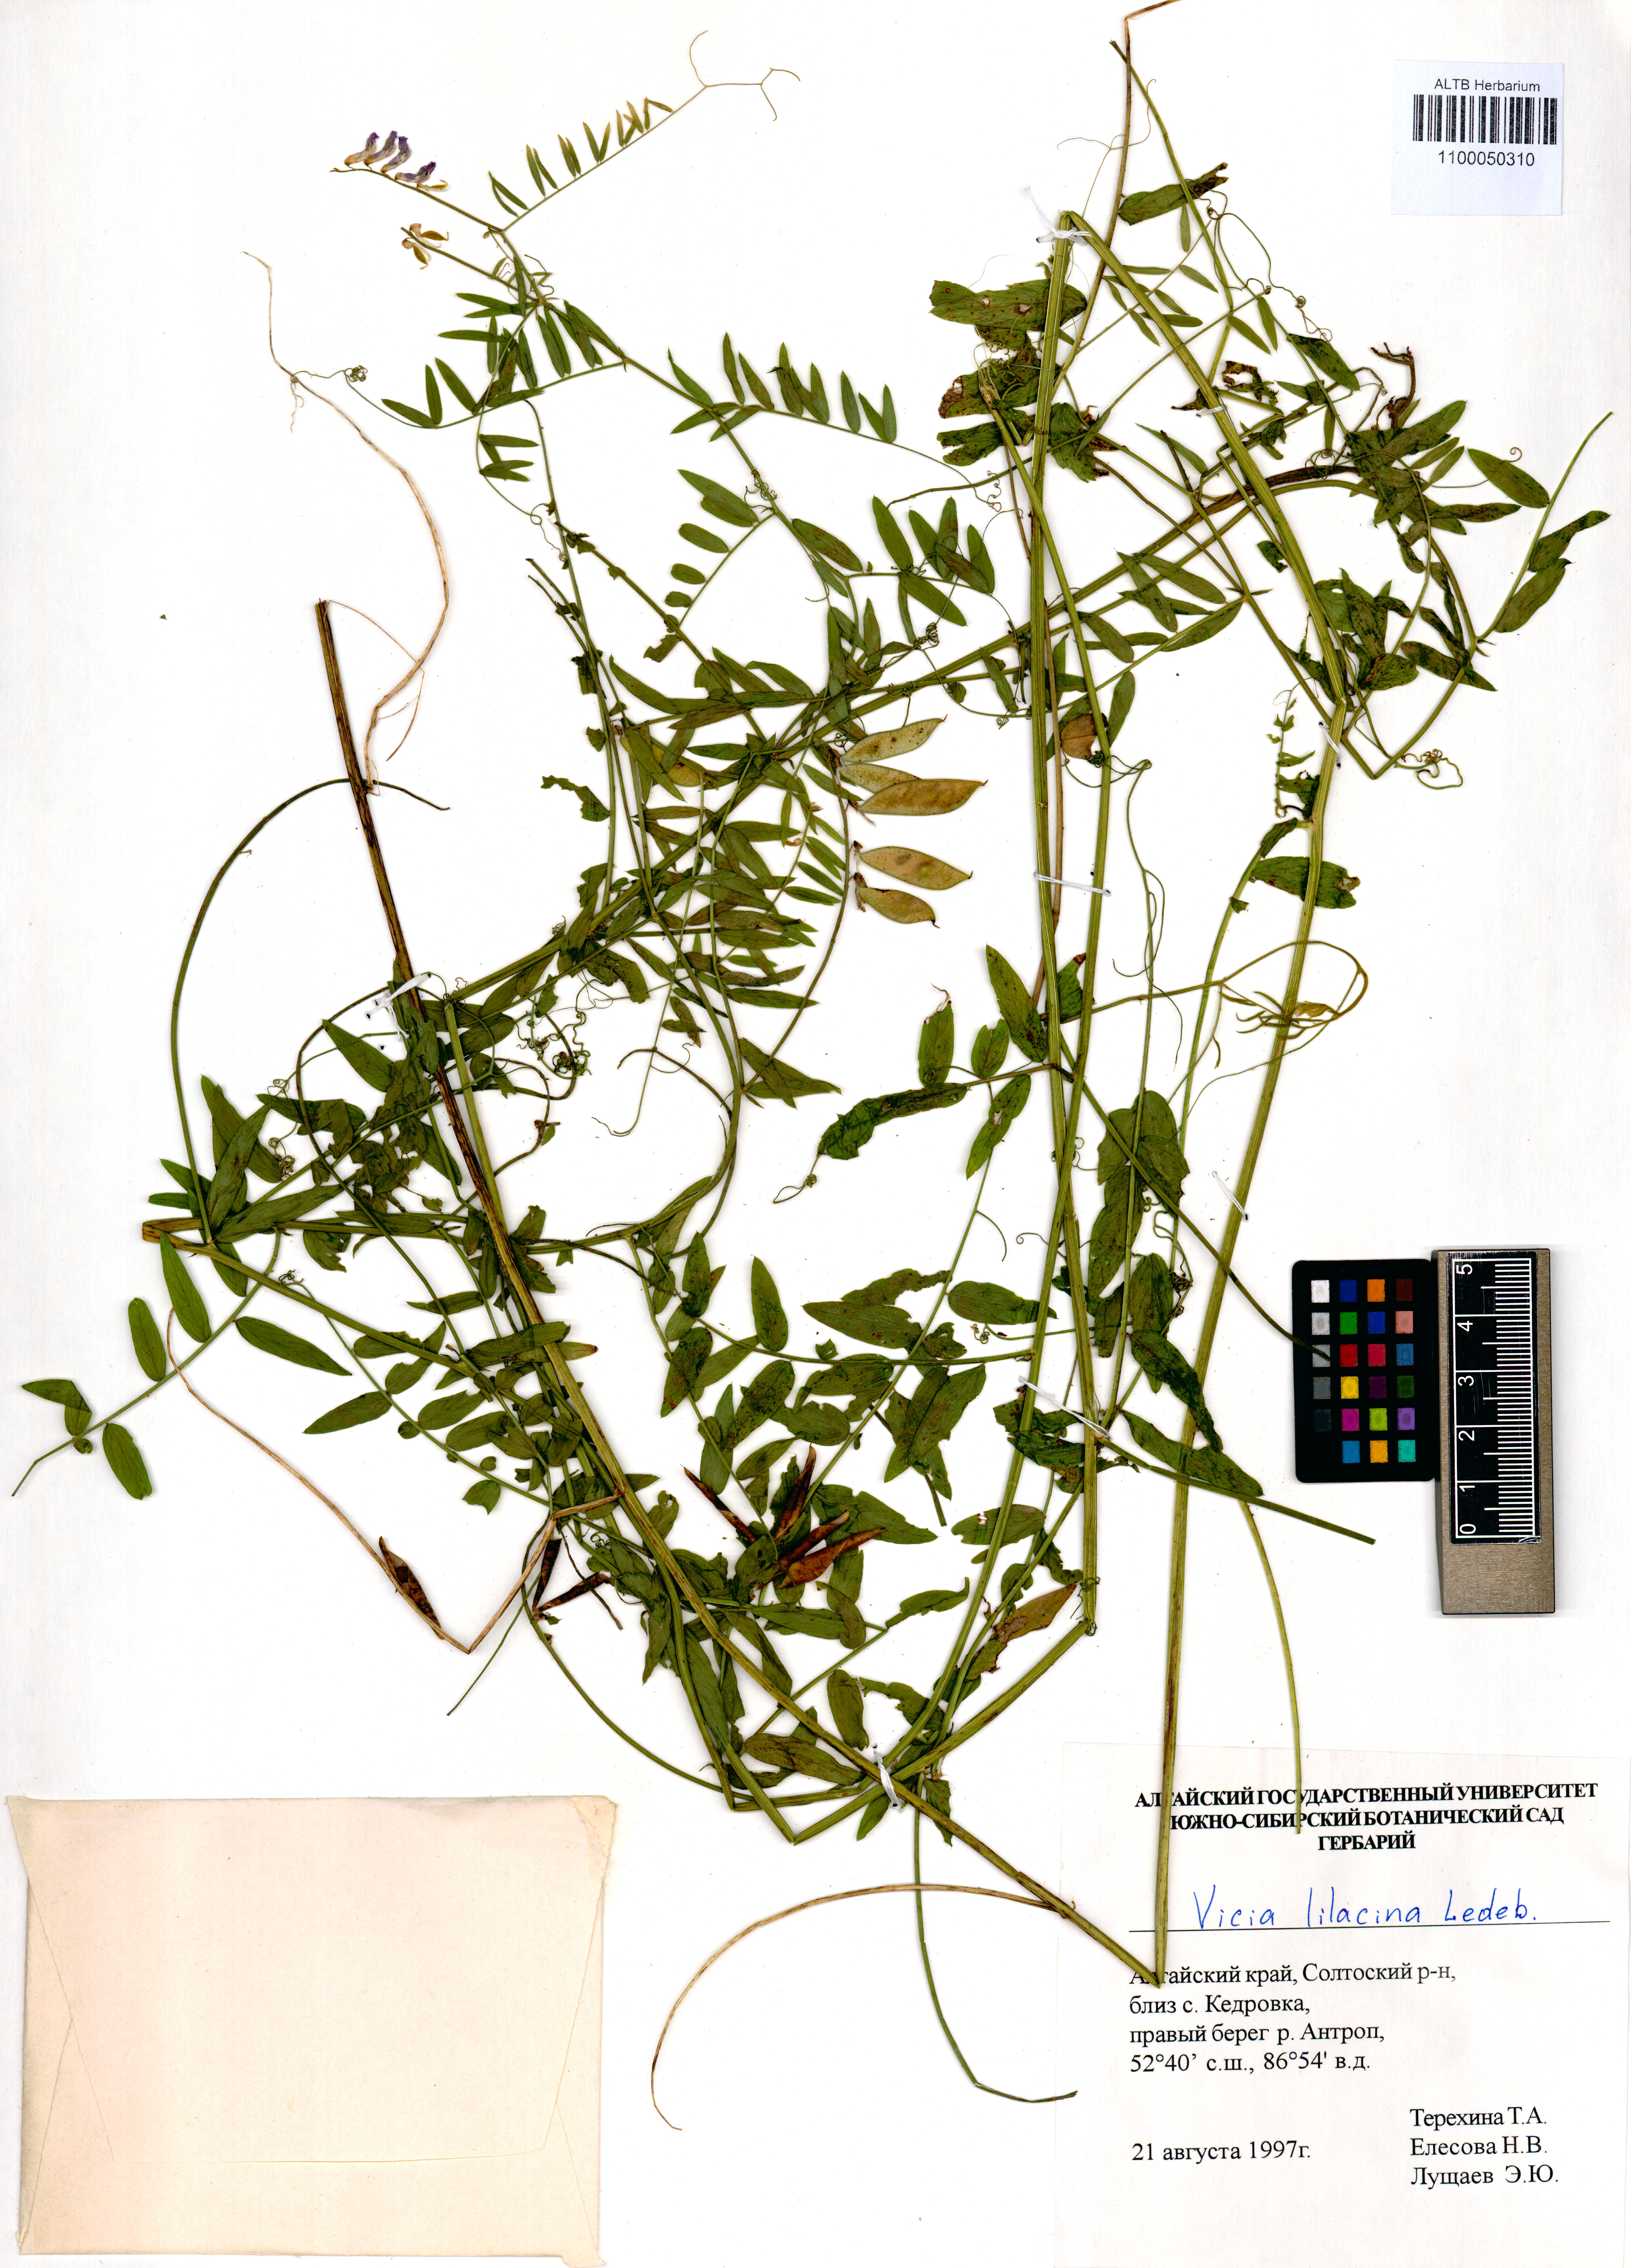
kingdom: Plantae
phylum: Tracheophyta
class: Magnoliopsida
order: Fabales
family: Fabaceae
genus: Vicia
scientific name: Vicia lilacina
